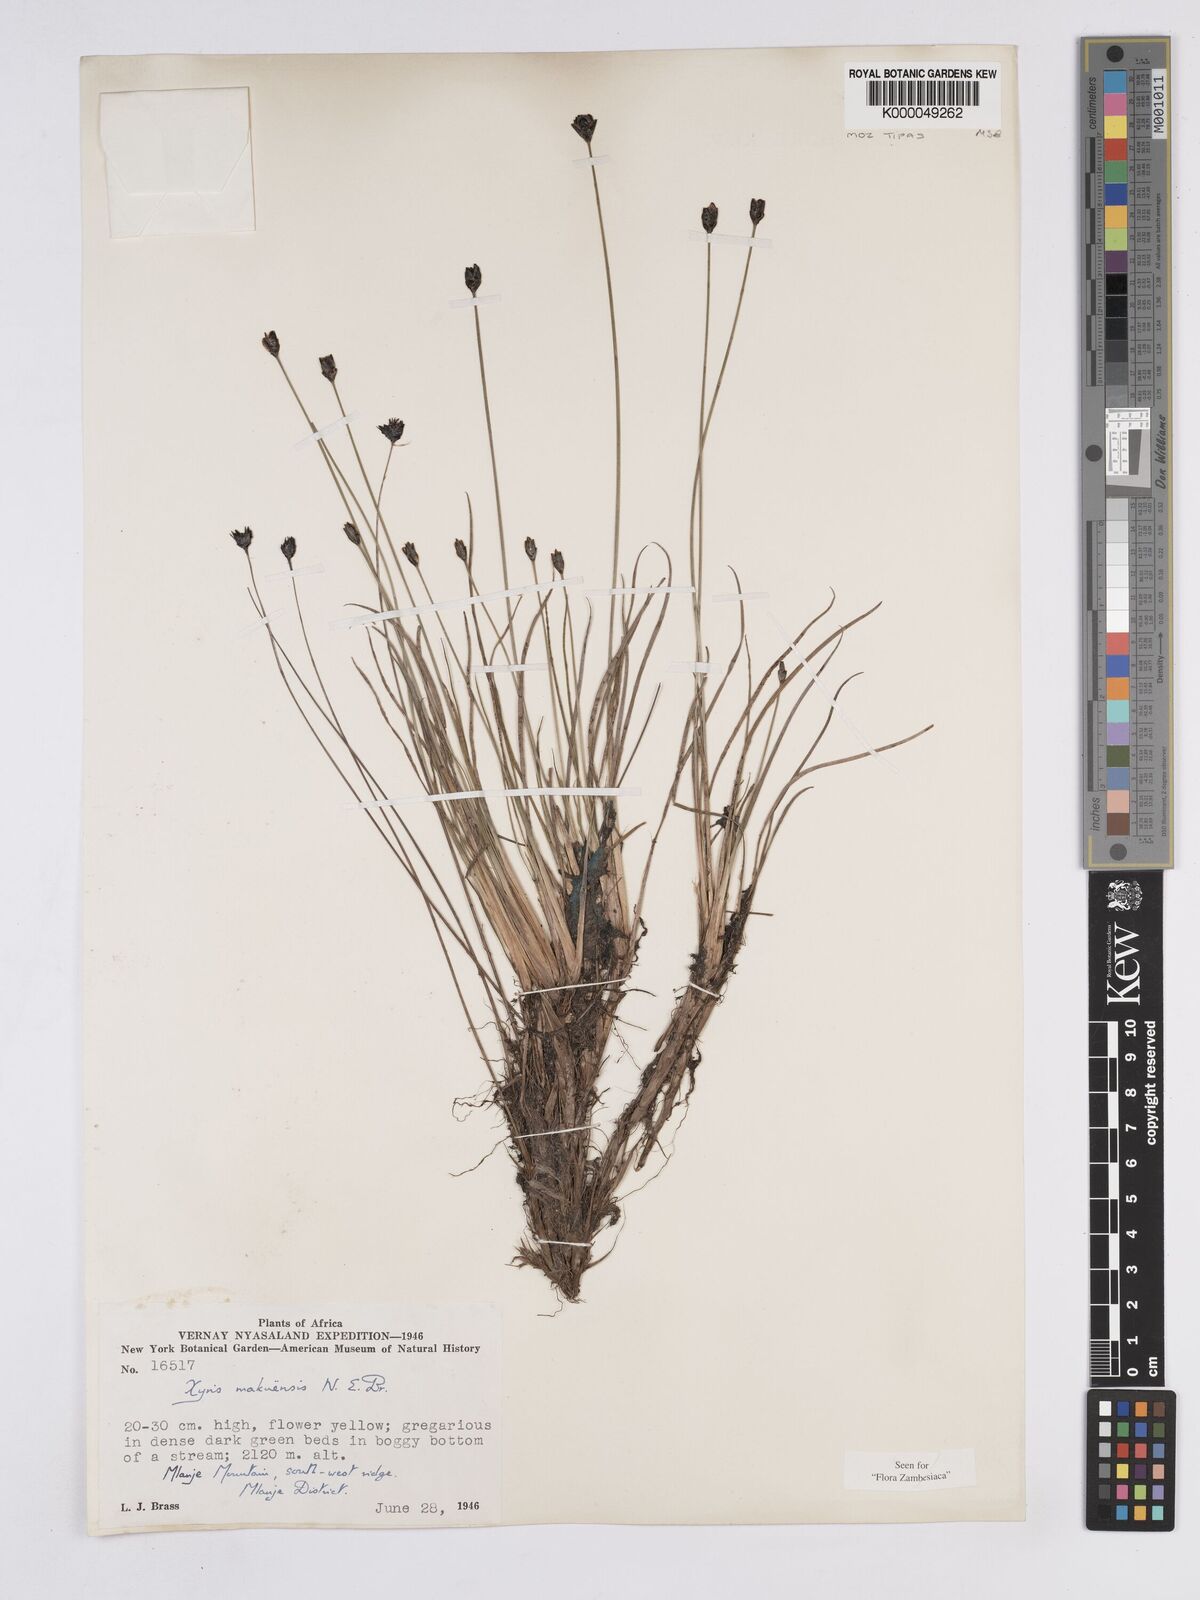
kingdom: Plantae
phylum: Tracheophyta
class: Liliopsida
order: Poales
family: Xyridaceae
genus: Xyris
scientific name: Xyris makuensis
